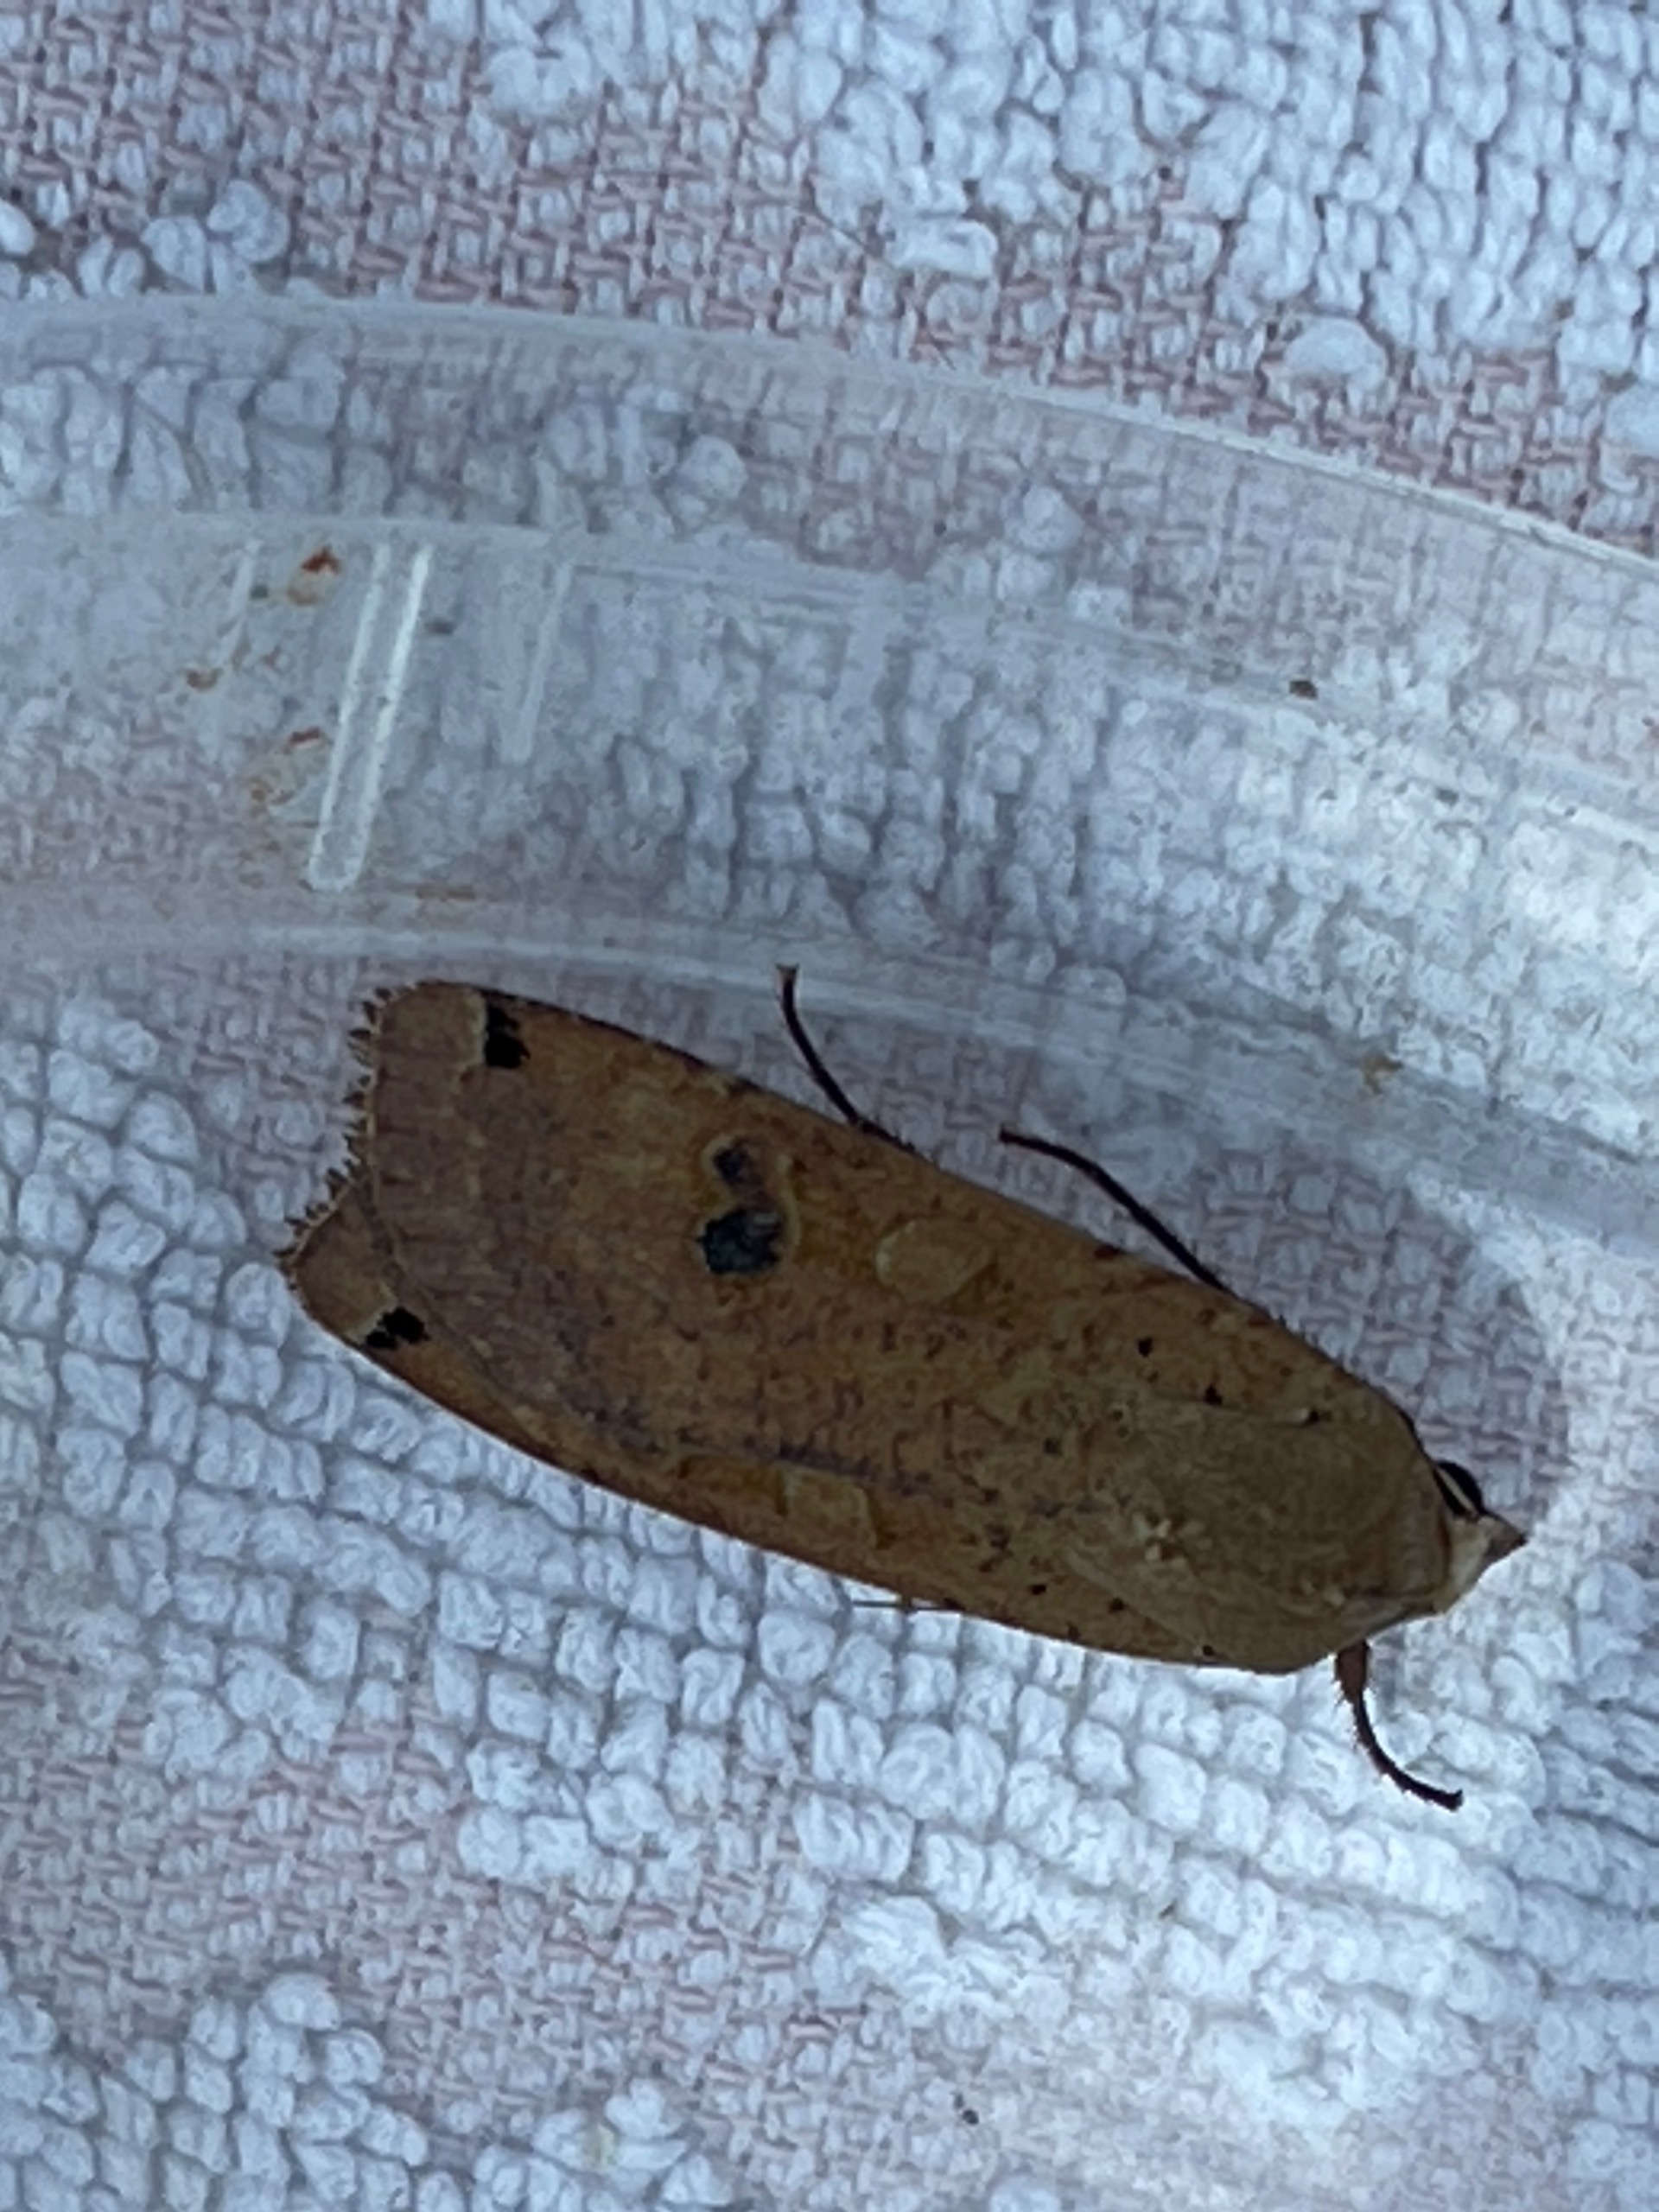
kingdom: Animalia
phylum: Arthropoda
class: Insecta
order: Lepidoptera
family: Noctuidae
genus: Noctua
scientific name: Noctua pronuba
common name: Stor smutugle
